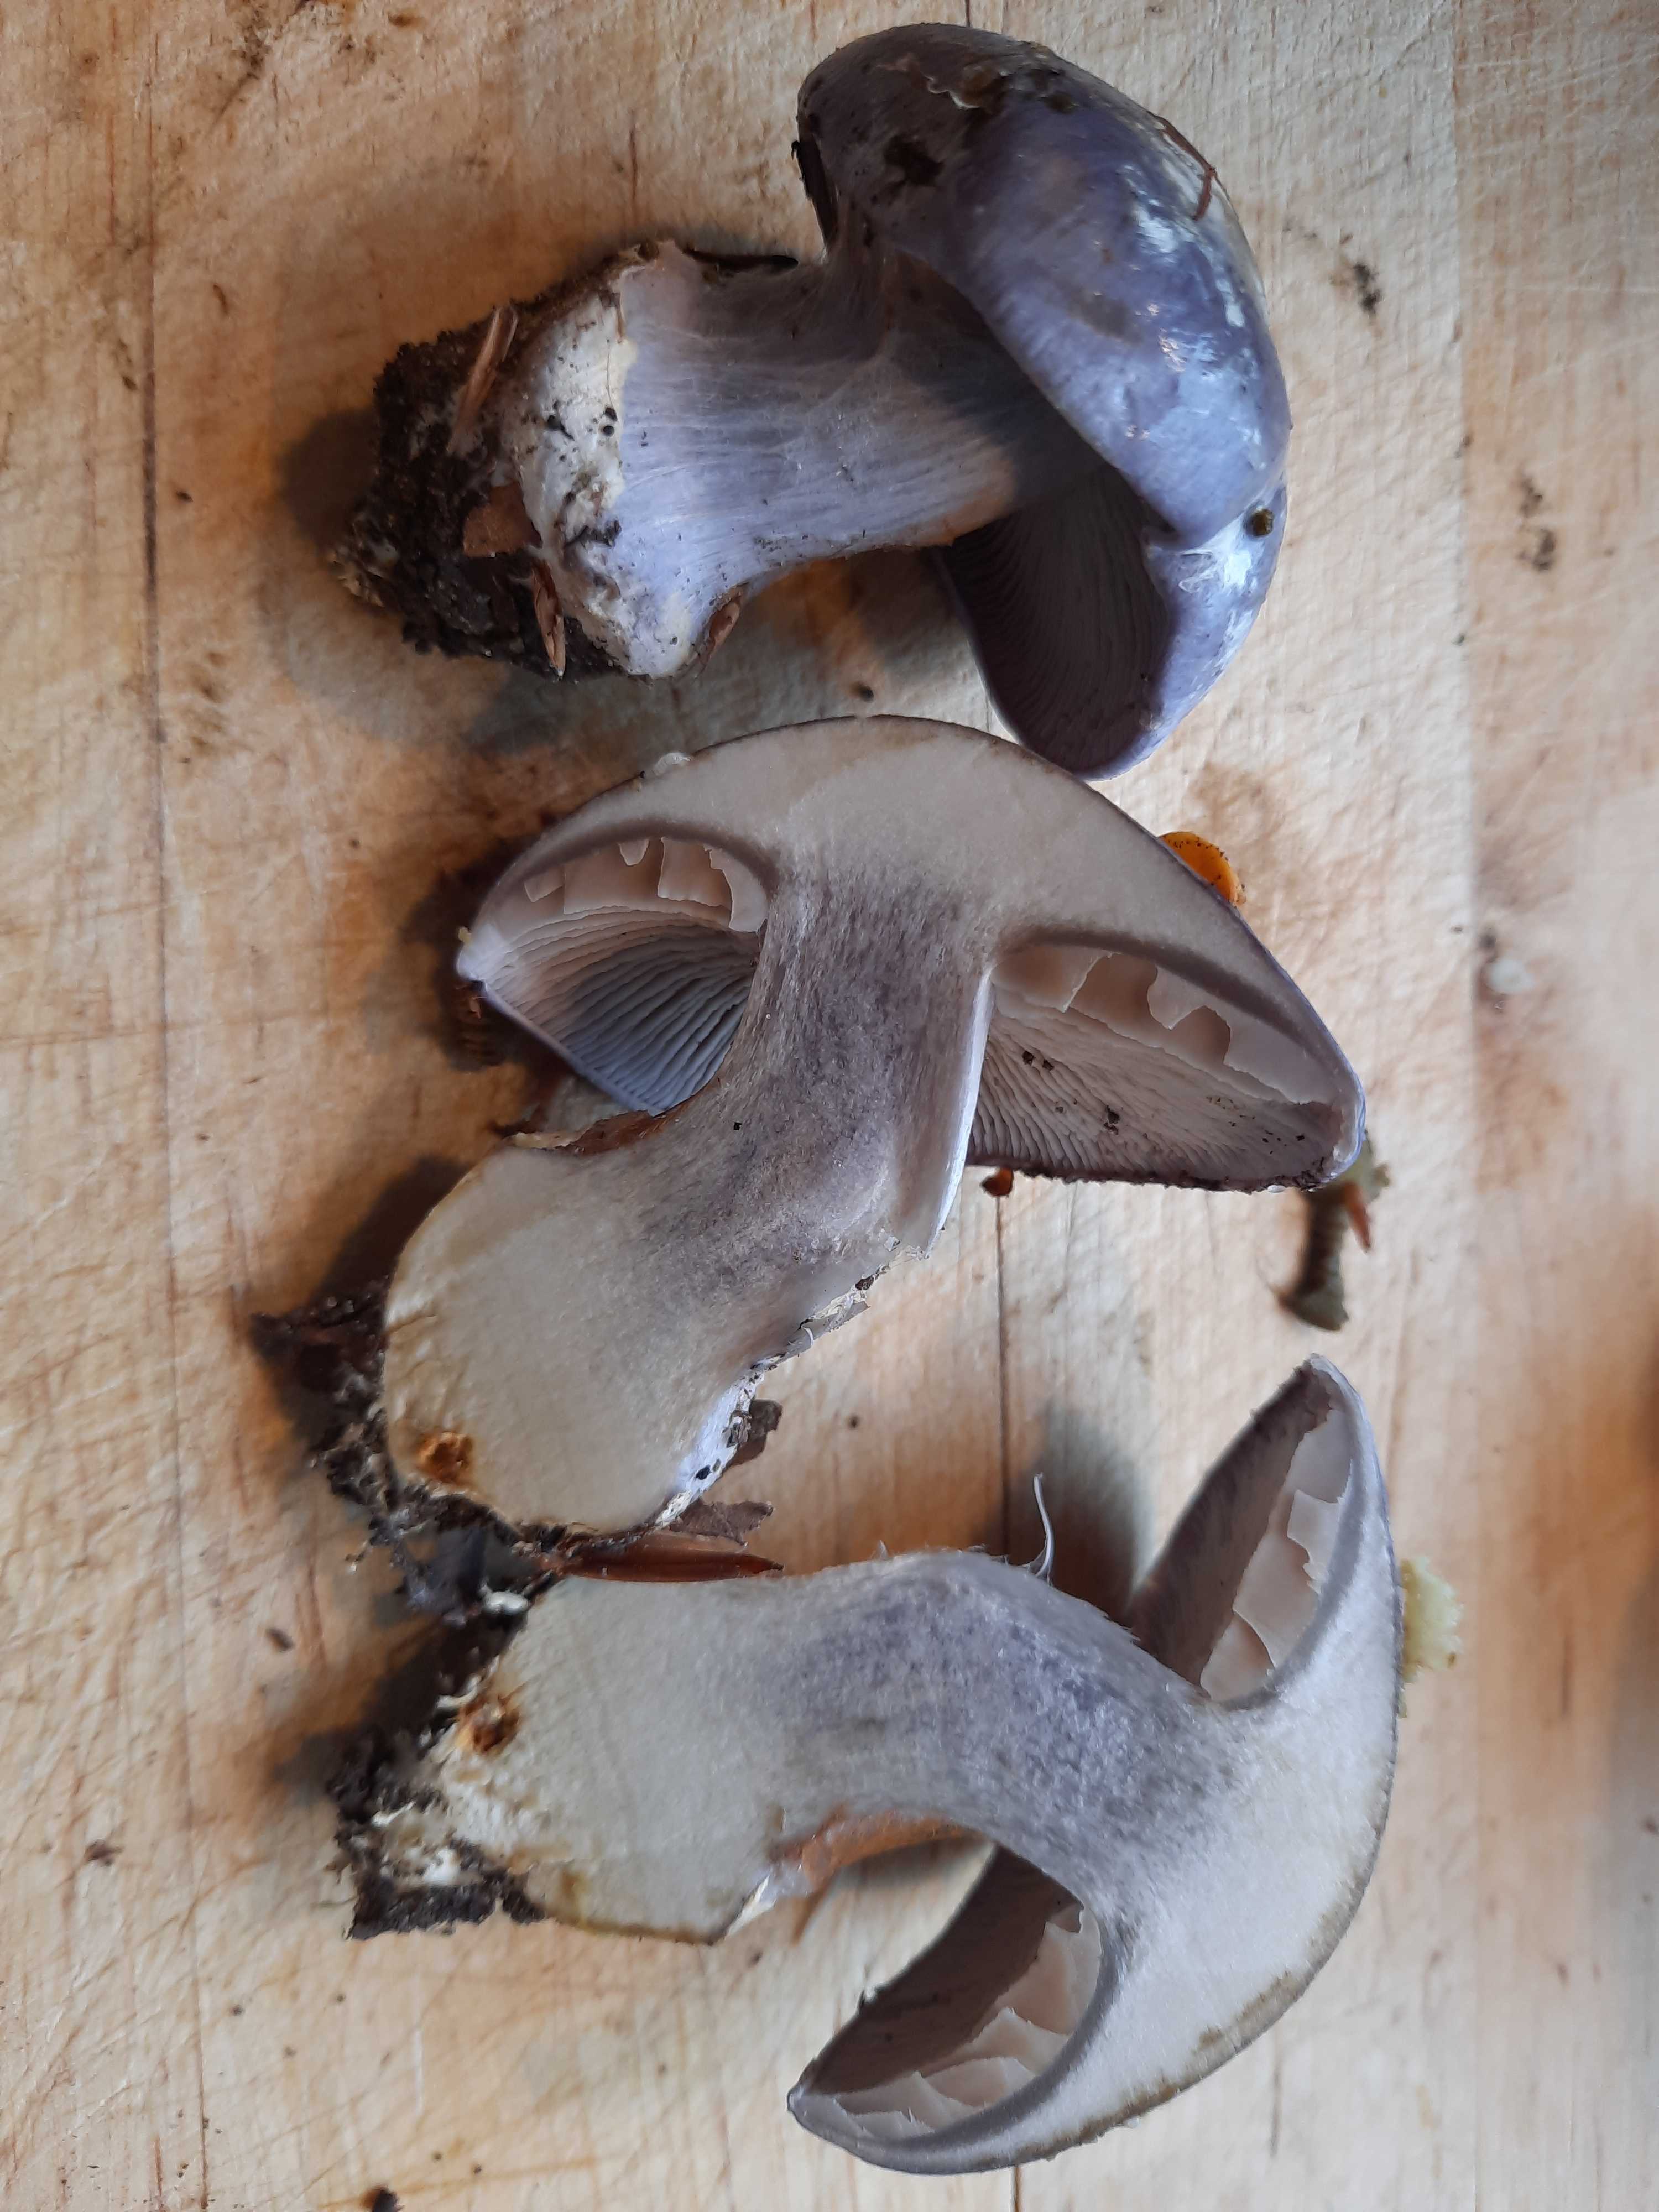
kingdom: Fungi
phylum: Basidiomycota
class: Agaricomycetes
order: Agaricales
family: Cortinariaceae
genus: Cortinarius
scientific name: Cortinarius caerulescens
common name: blåkødet slørhat
